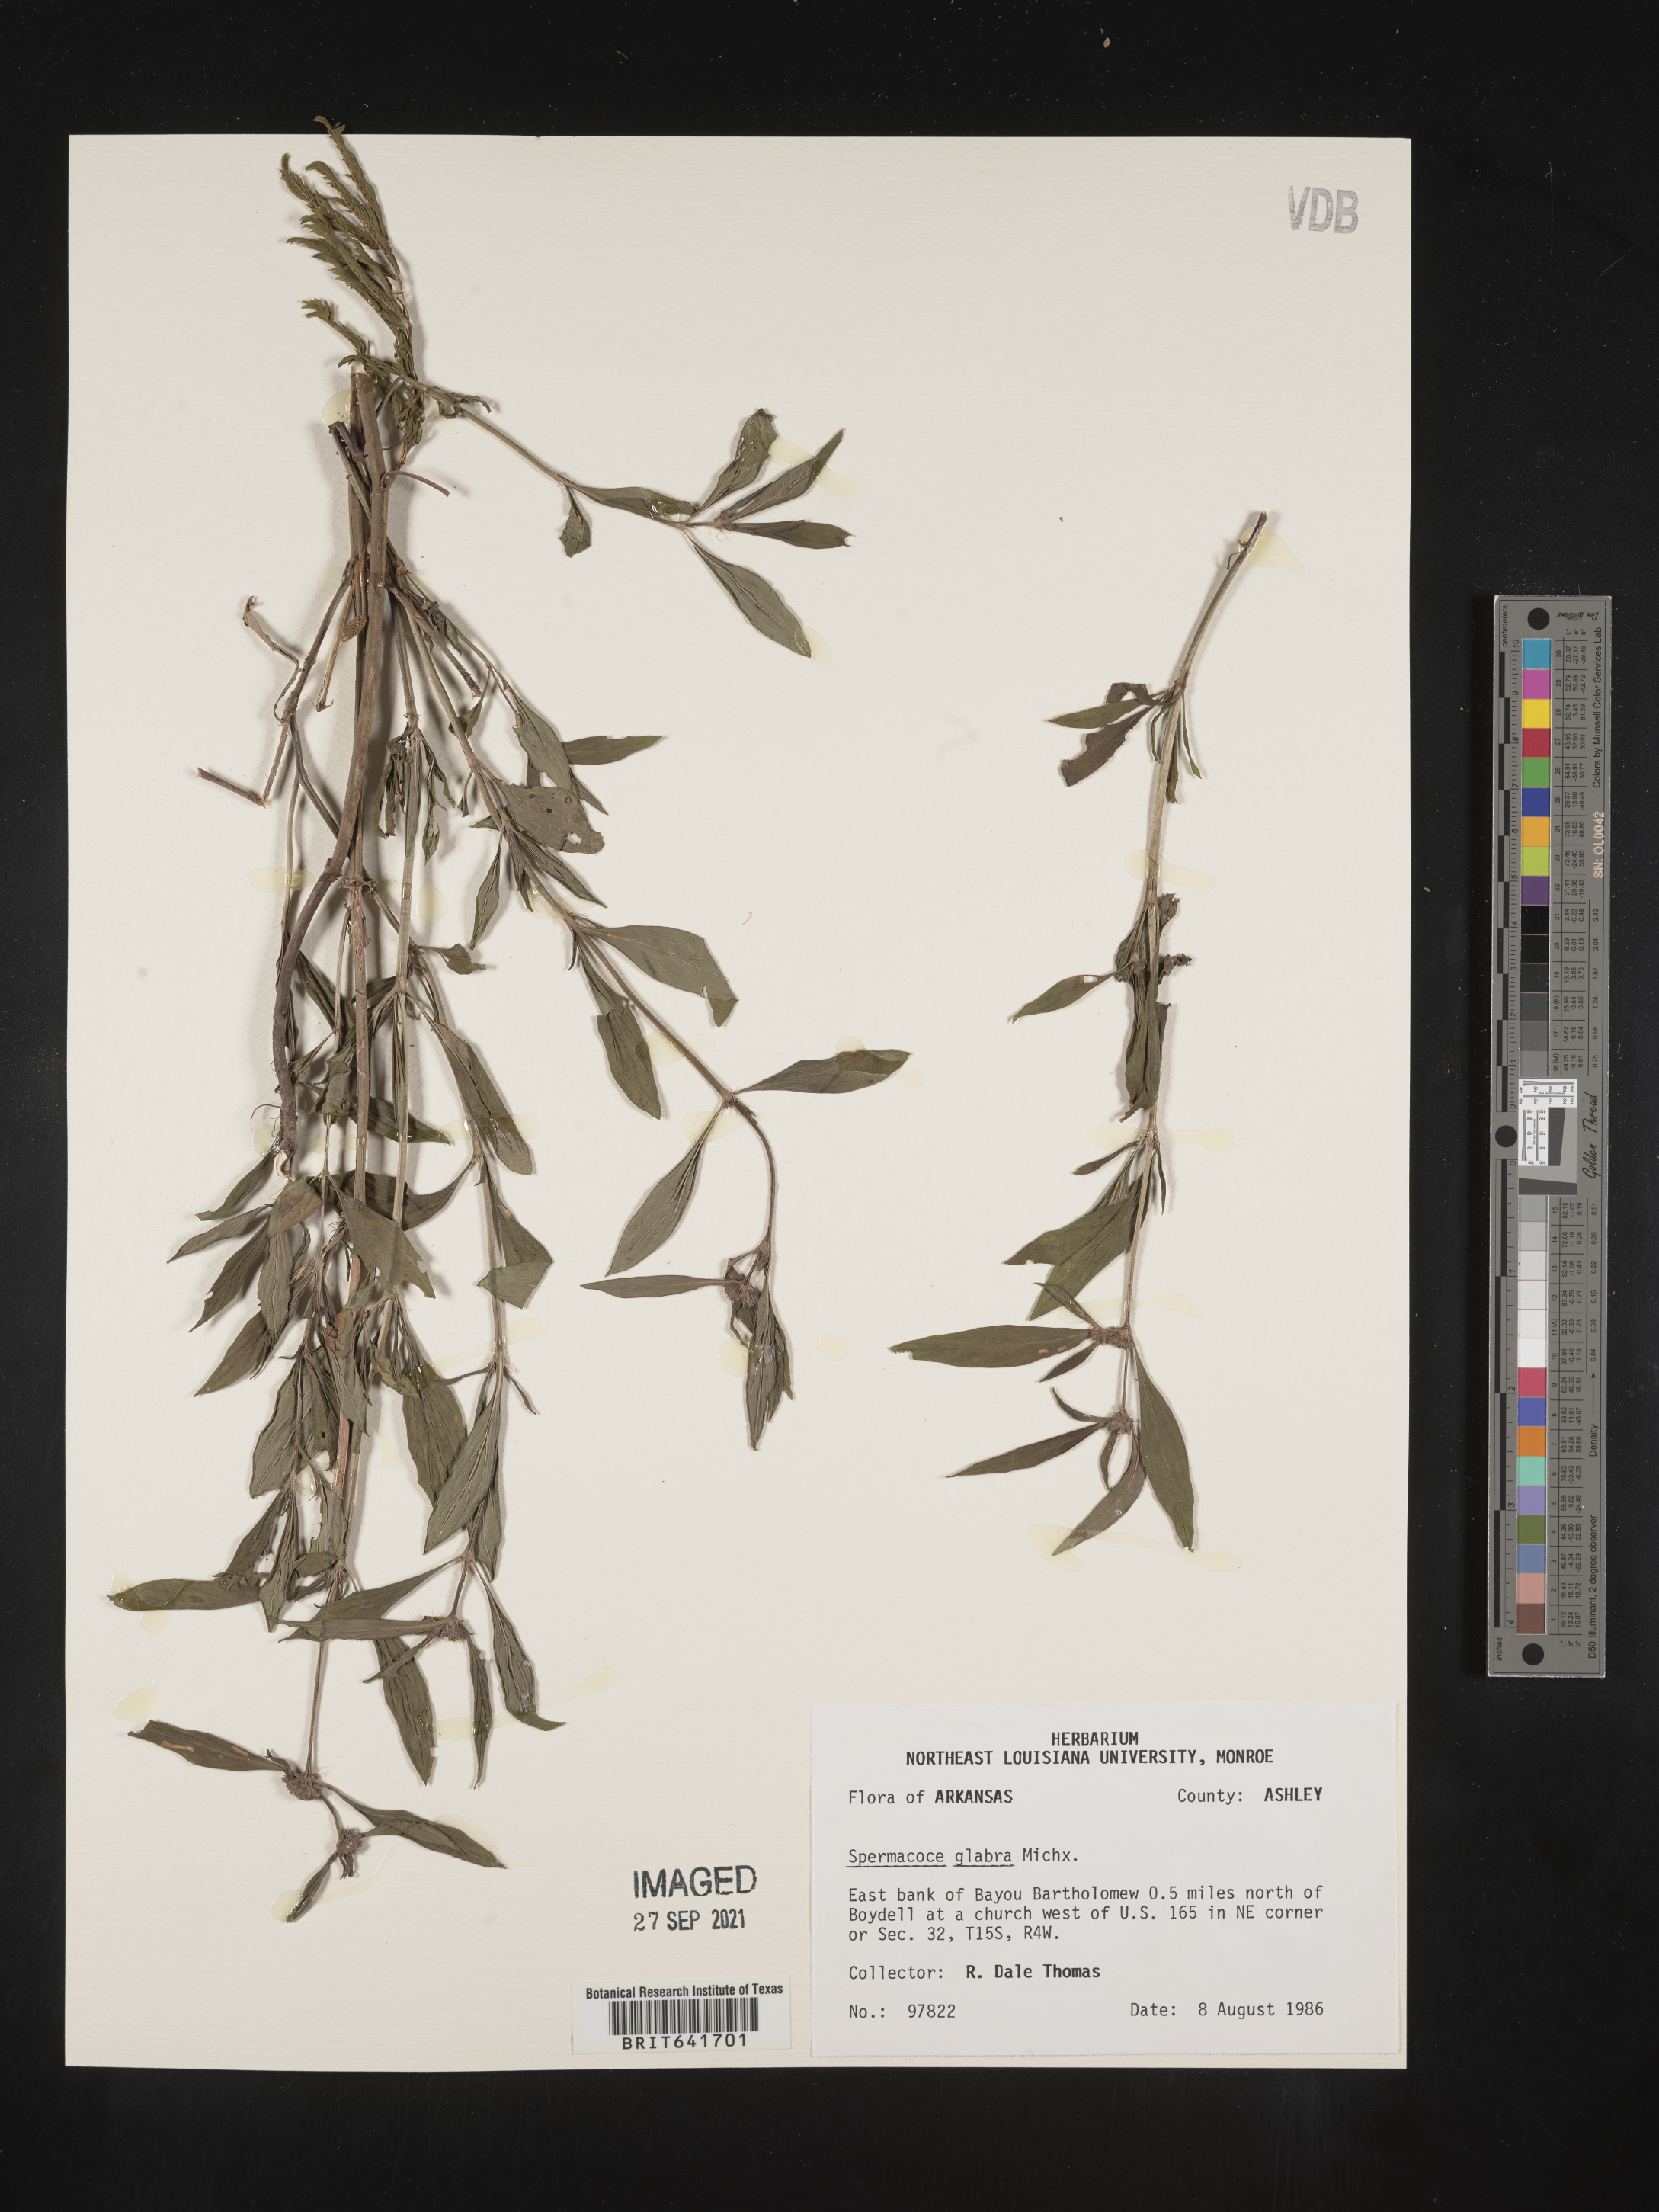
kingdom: Plantae
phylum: Tracheophyta
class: Magnoliopsida
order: Gentianales
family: Rubiaceae
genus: Spermacoce
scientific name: Spermacoce glabra
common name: Smooth buttonweed
